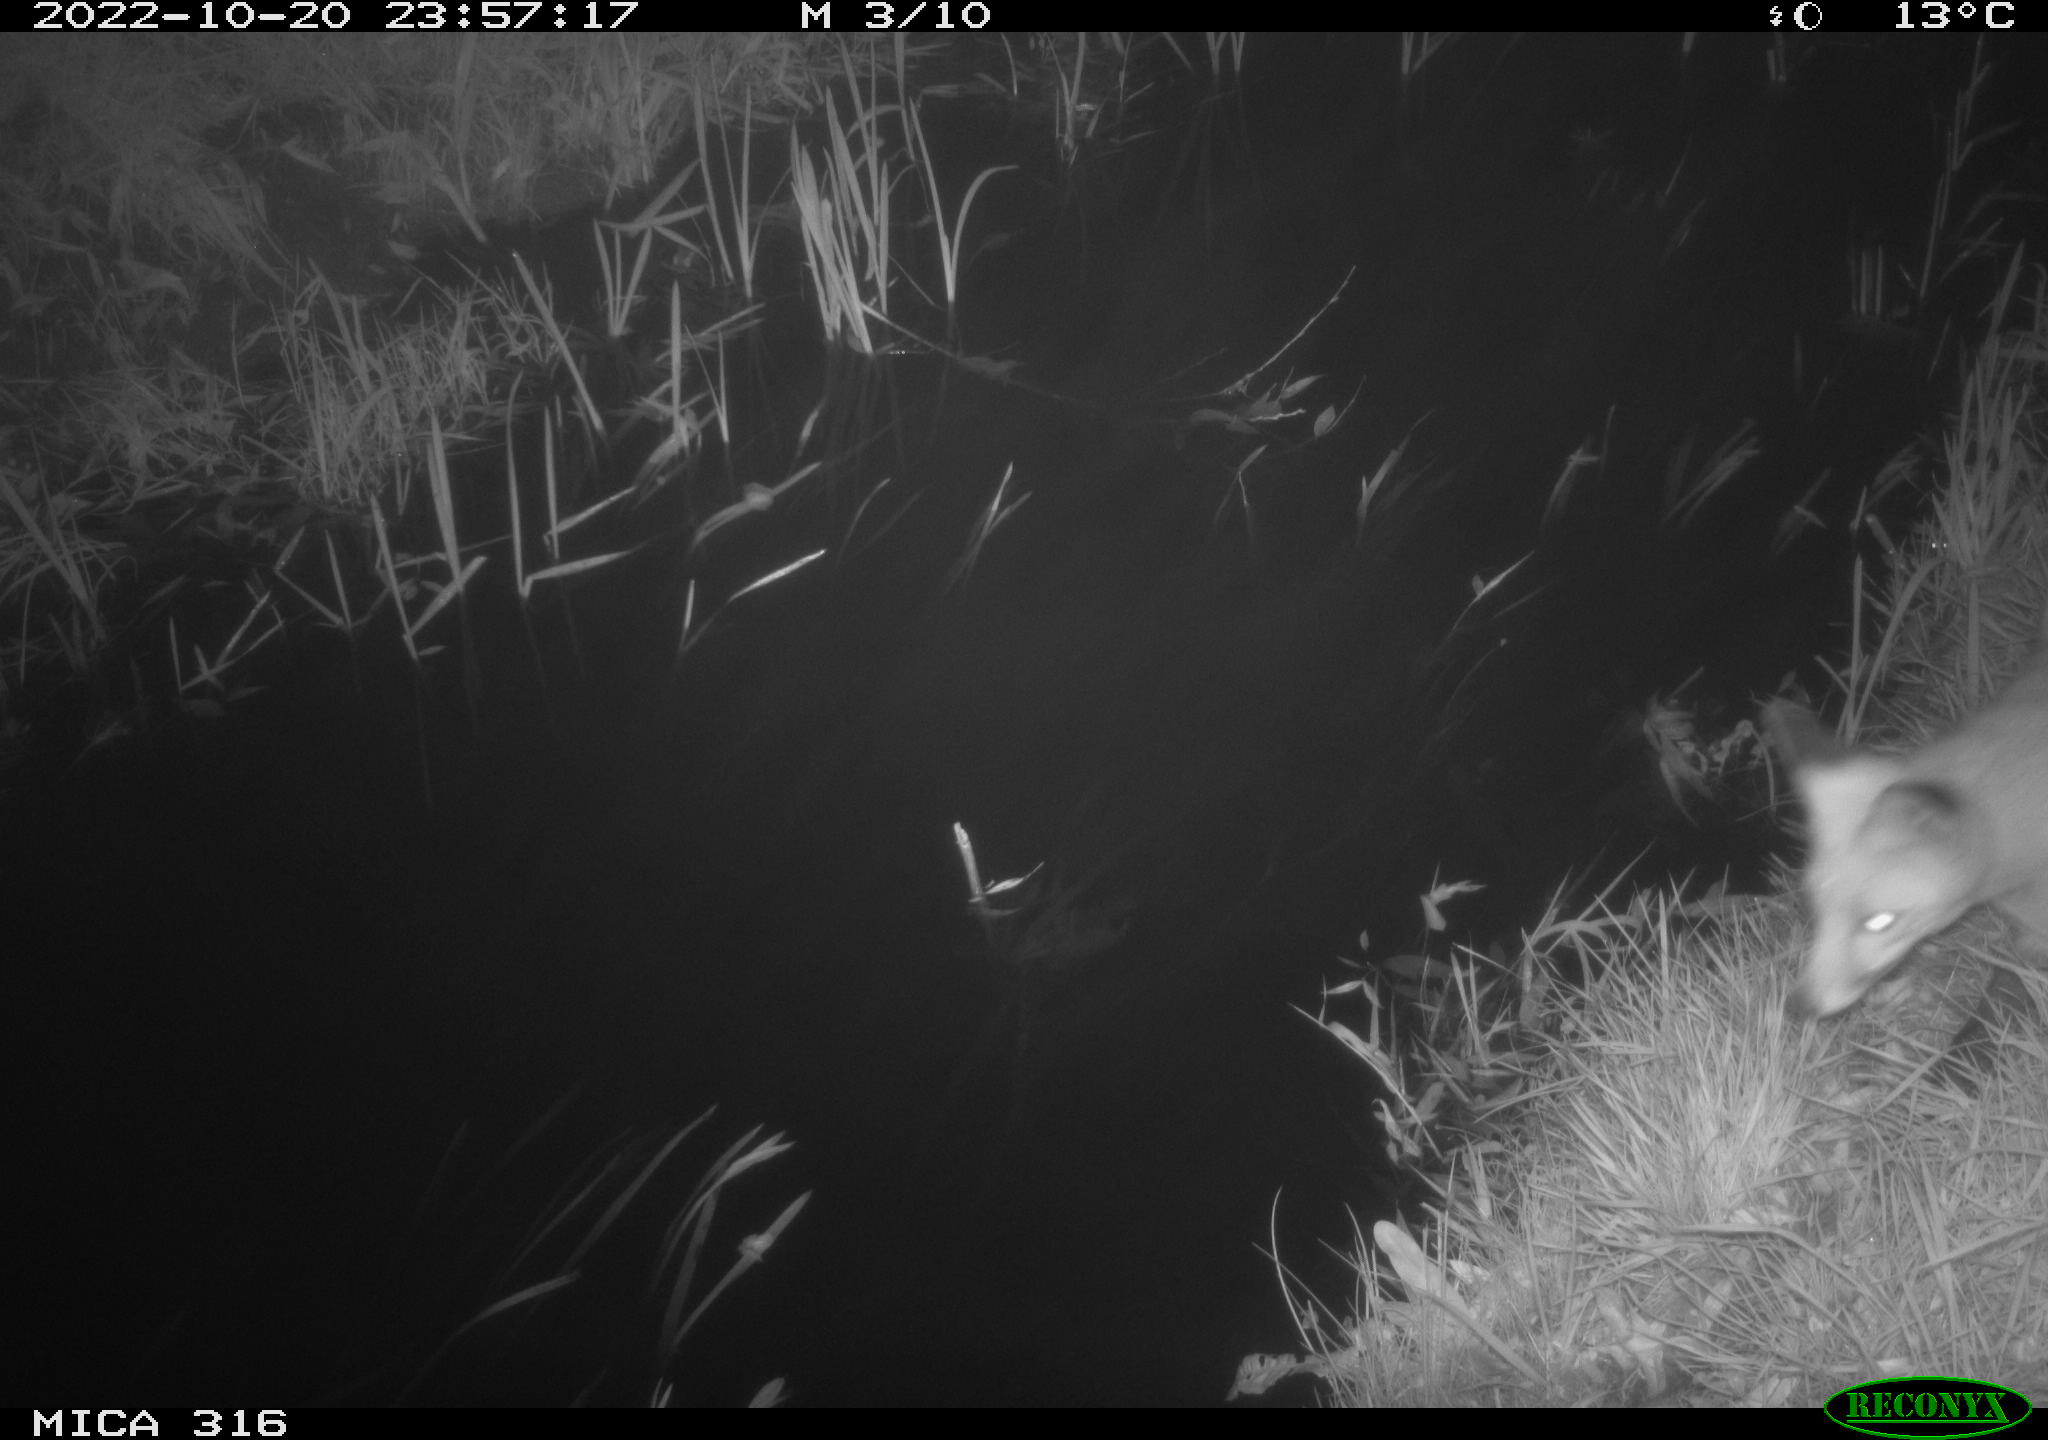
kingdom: Animalia
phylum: Chordata
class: Mammalia
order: Carnivora
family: Canidae
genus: Vulpes
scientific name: Vulpes vulpes
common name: Red fox
